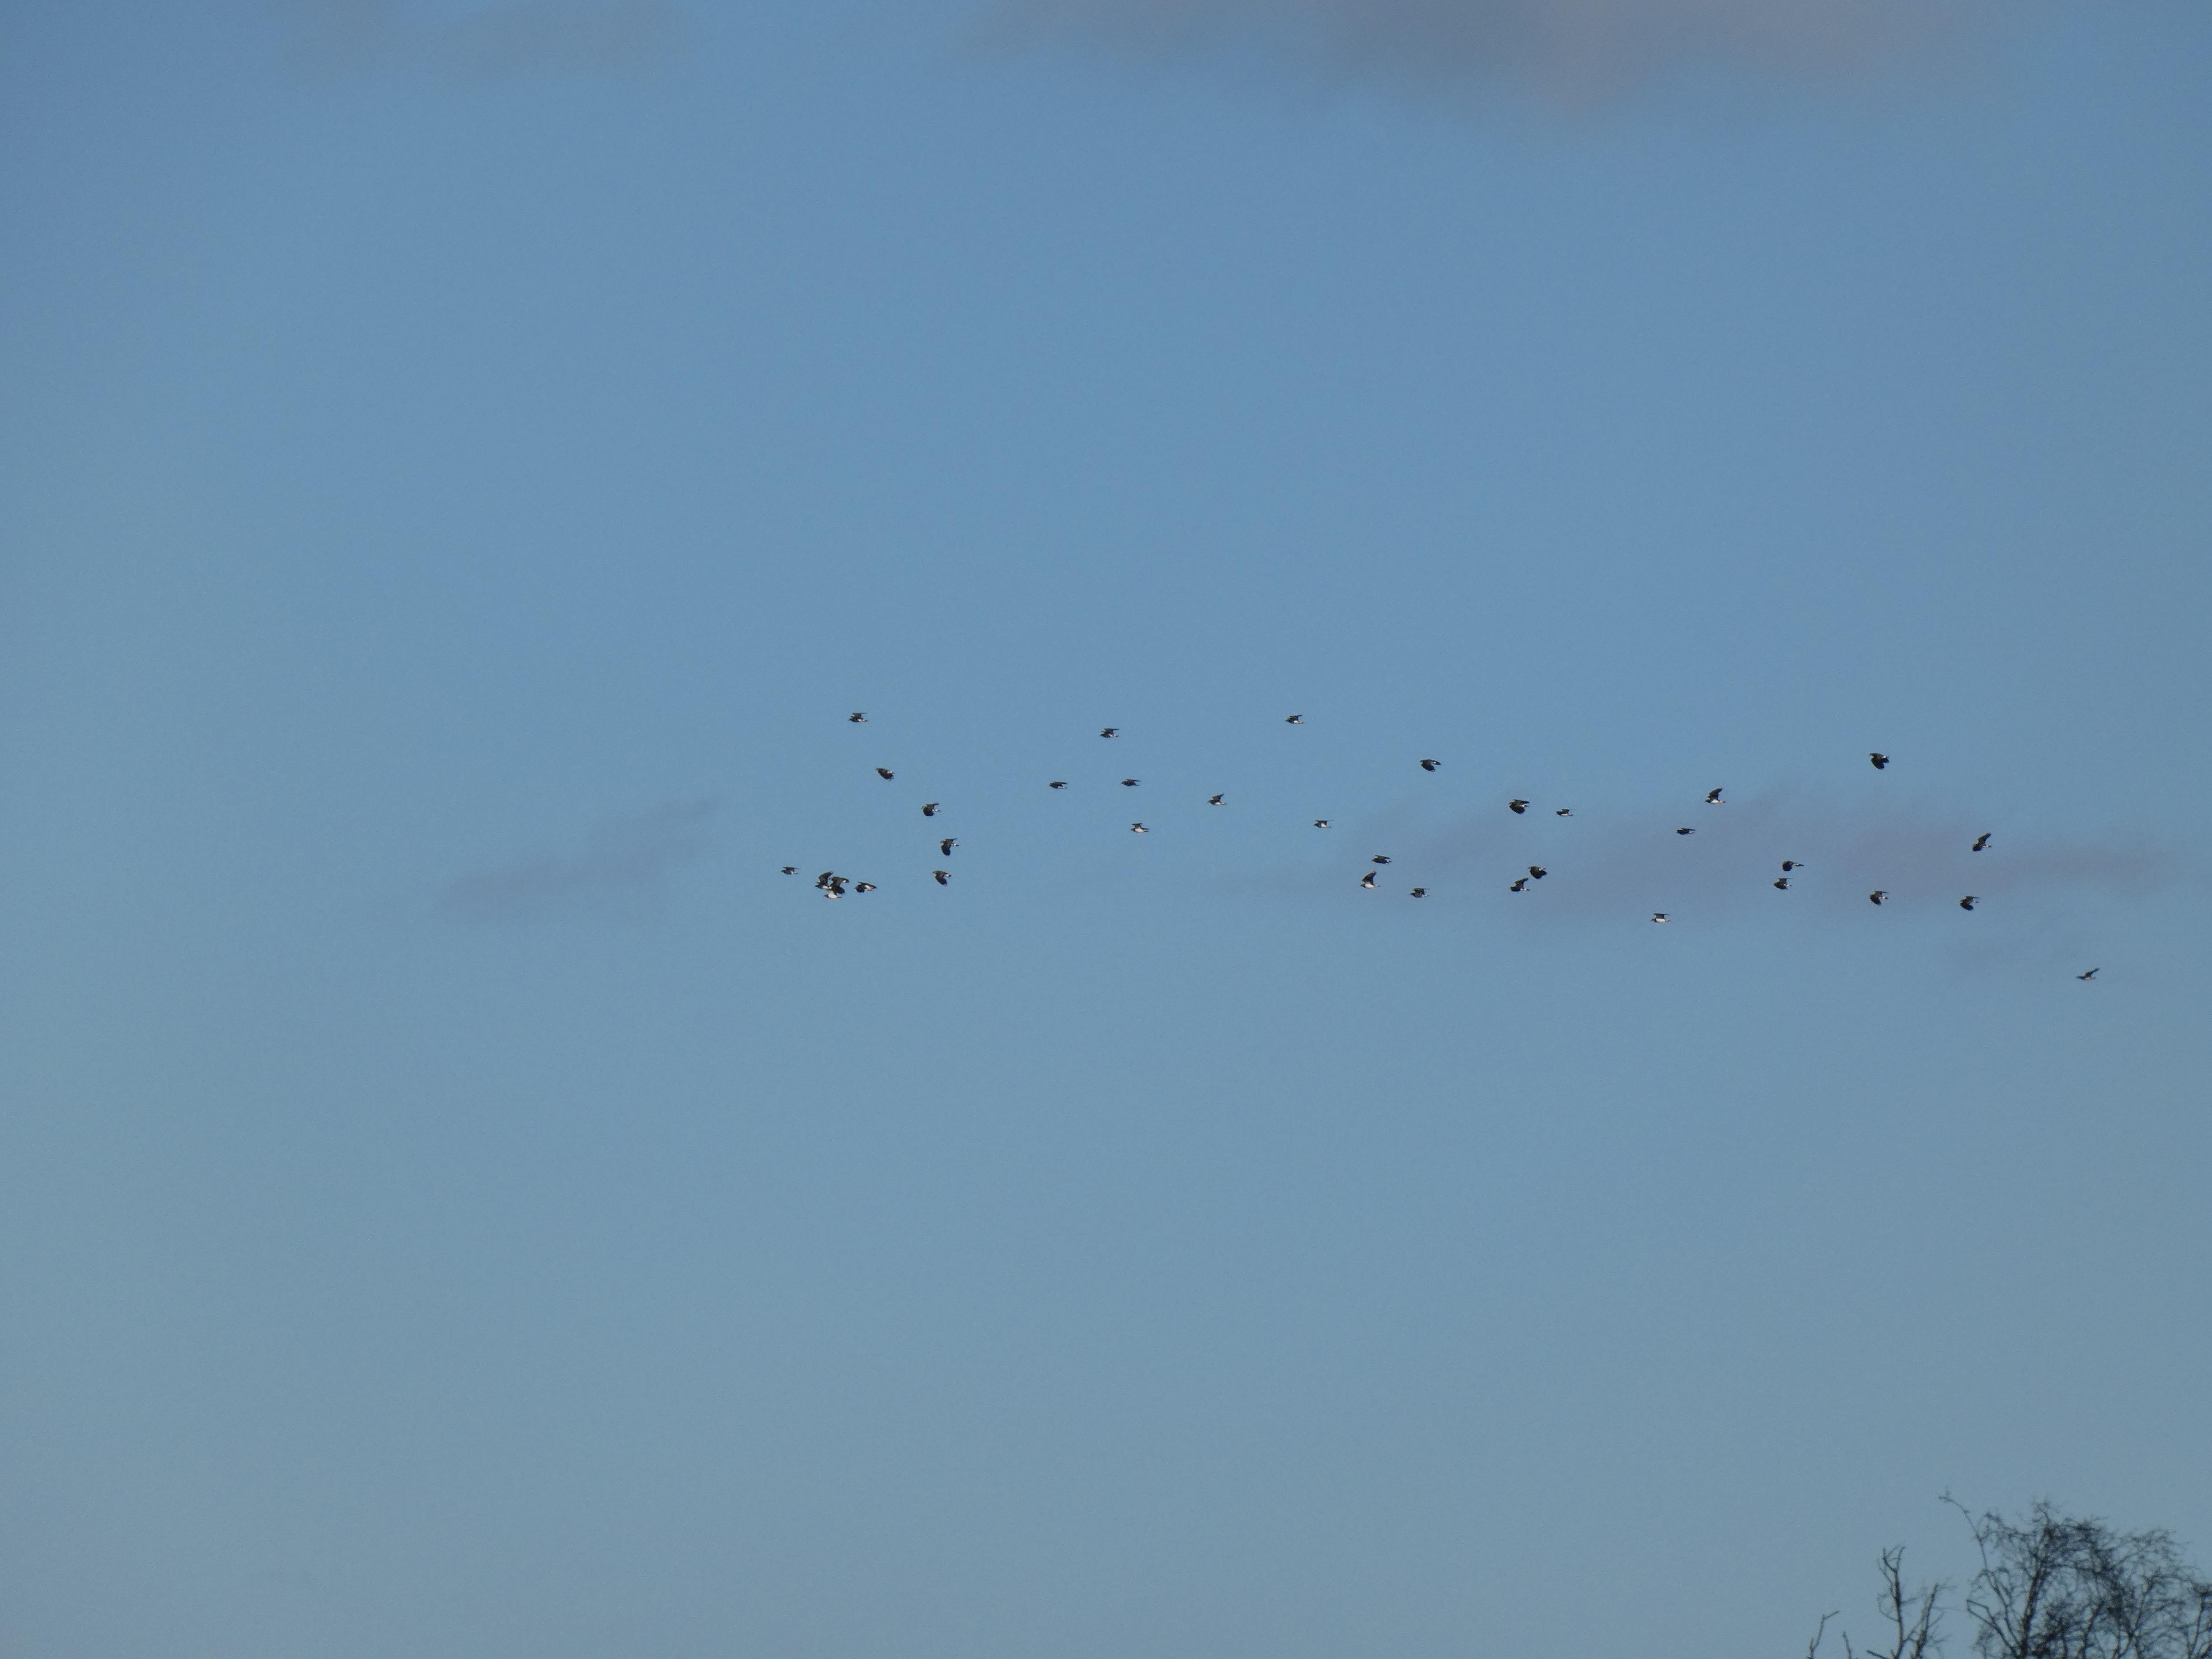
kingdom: Animalia
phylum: Chordata
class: Aves
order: Charadriiformes
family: Charadriidae
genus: Vanellus
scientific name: Vanellus vanellus
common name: Vibe
